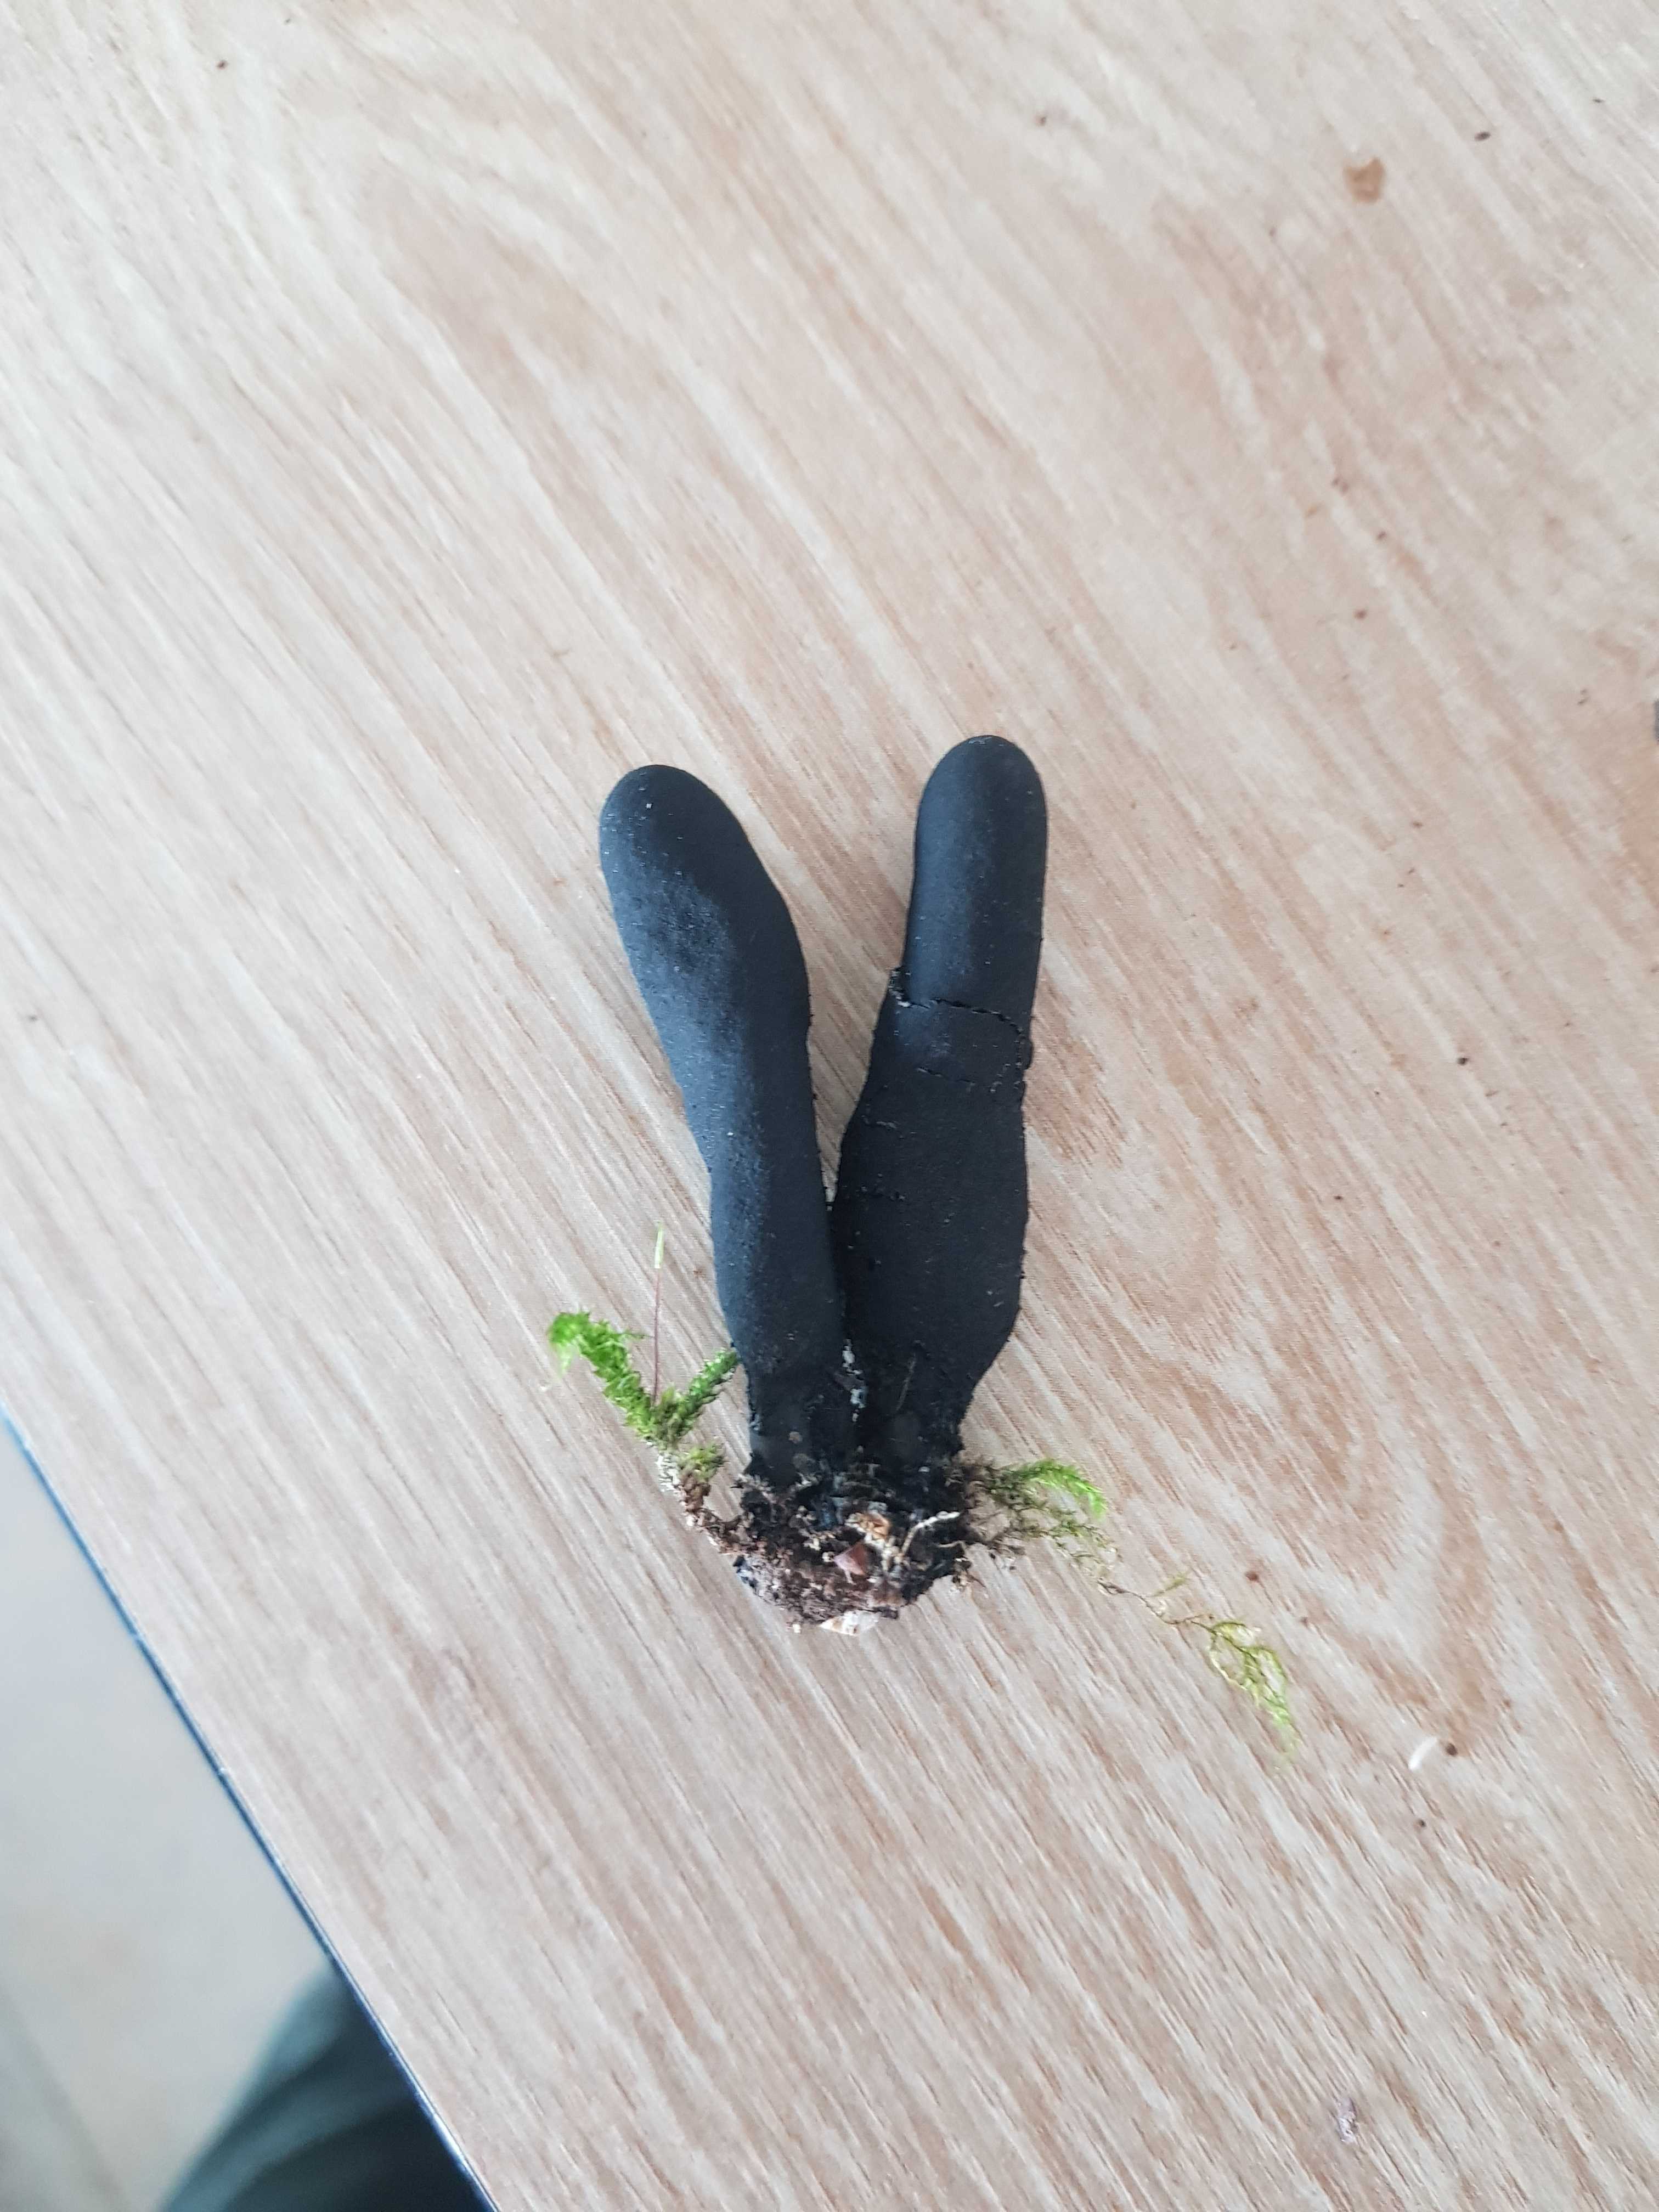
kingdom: Fungi
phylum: Ascomycota
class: Sordariomycetes
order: Xylariales
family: Xylariaceae
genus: Xylaria
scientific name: Xylaria longipes
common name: slank stødsvamp
